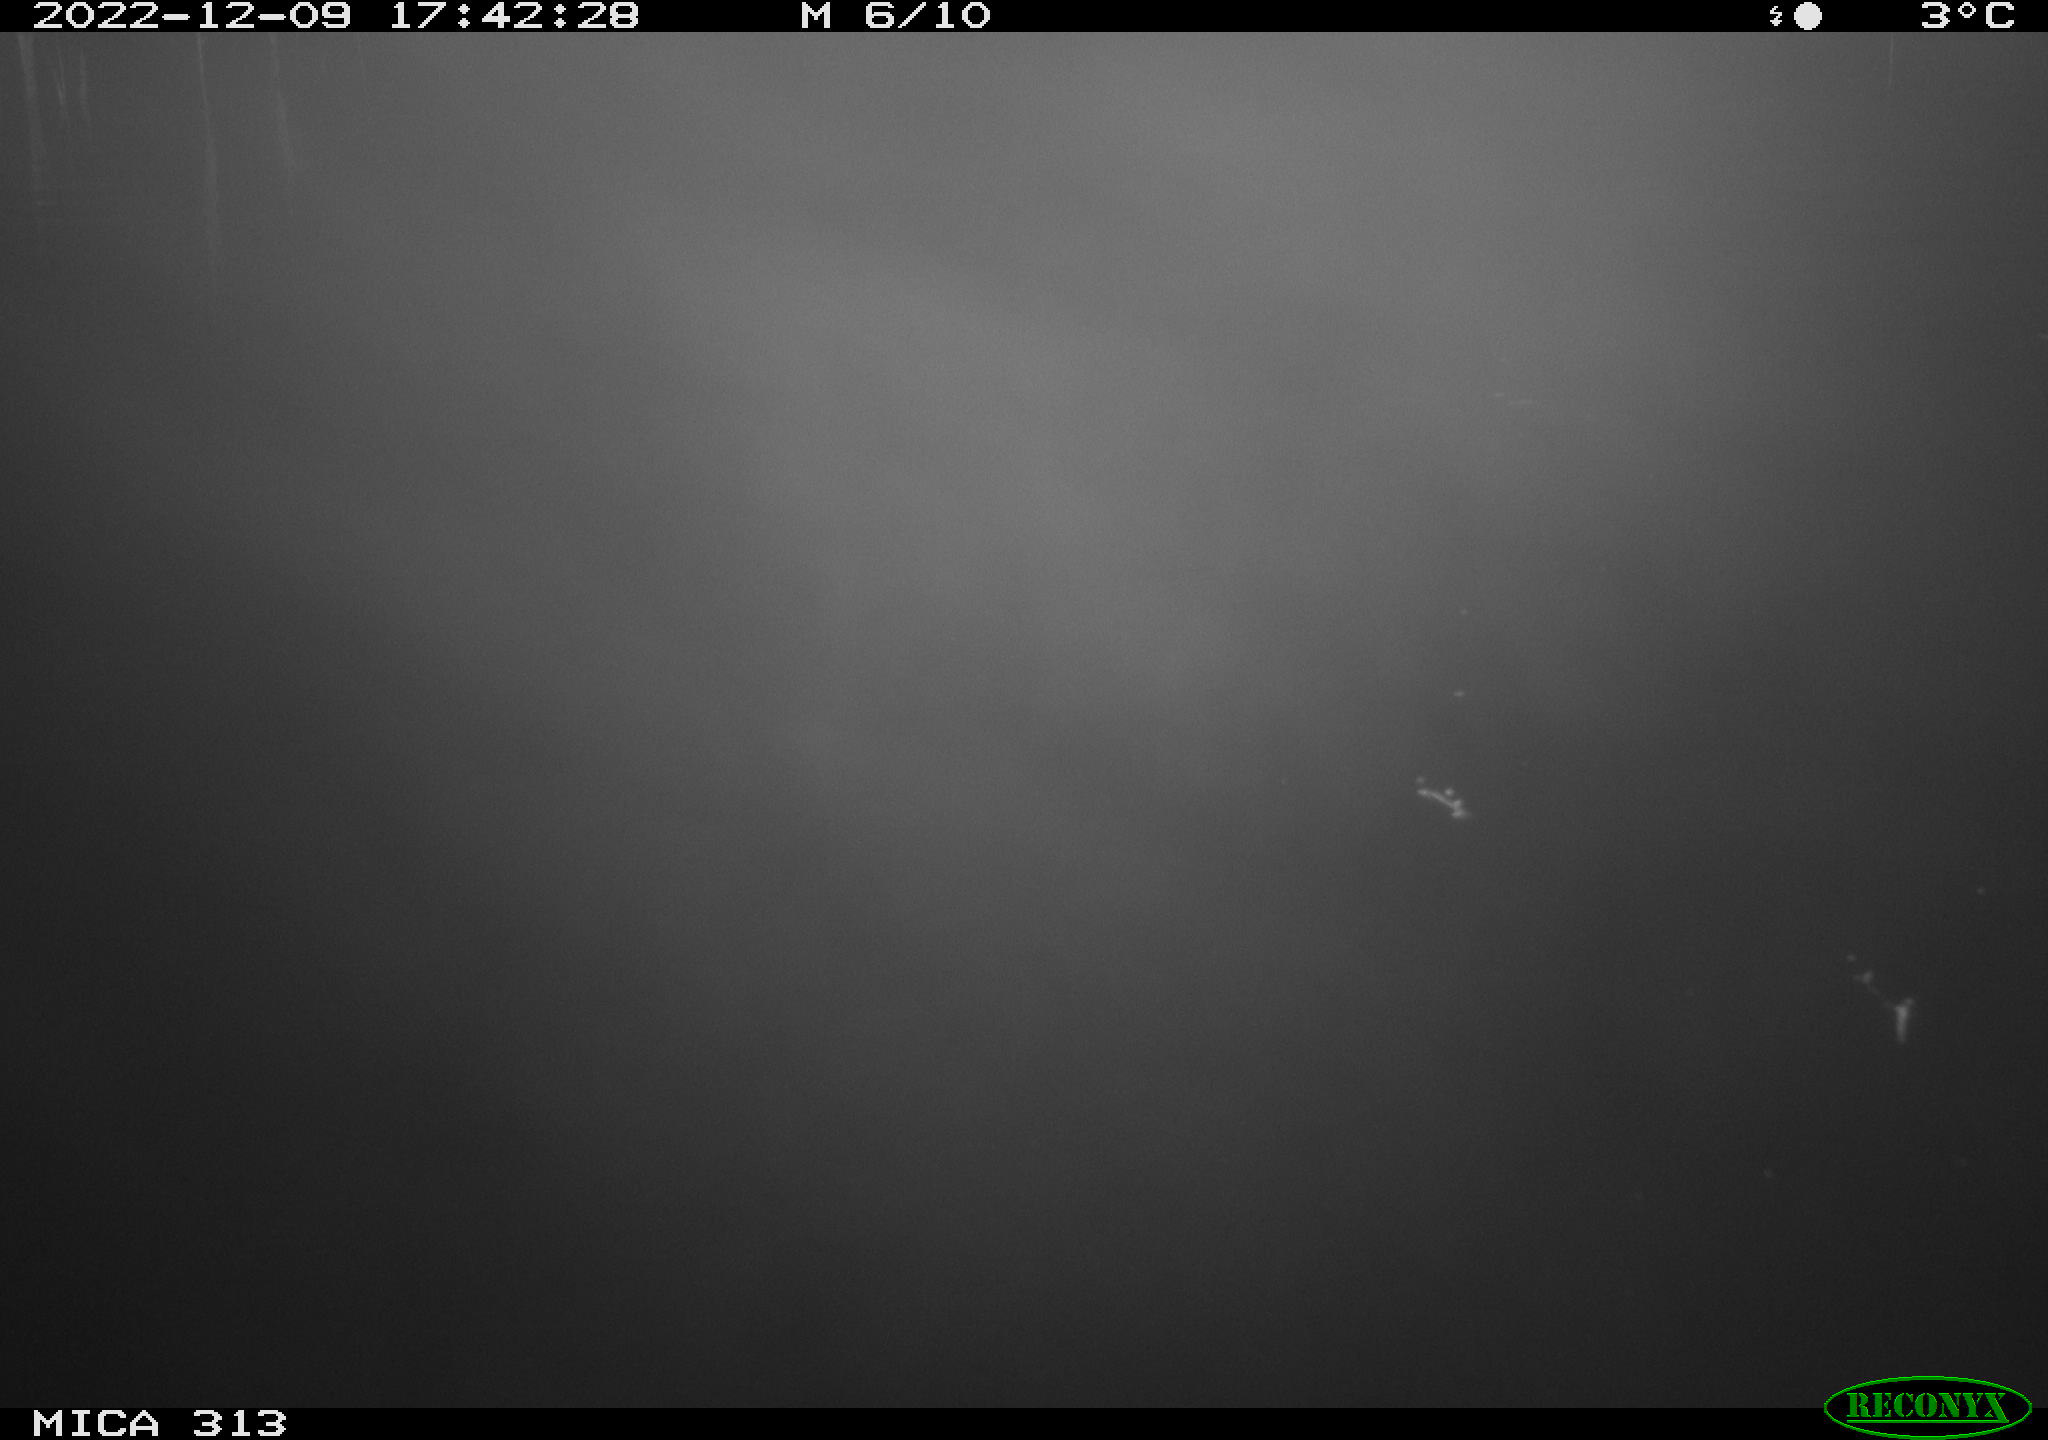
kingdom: Animalia
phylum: Chordata
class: Aves
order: Anseriformes
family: Anatidae
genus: Anas
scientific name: Anas
